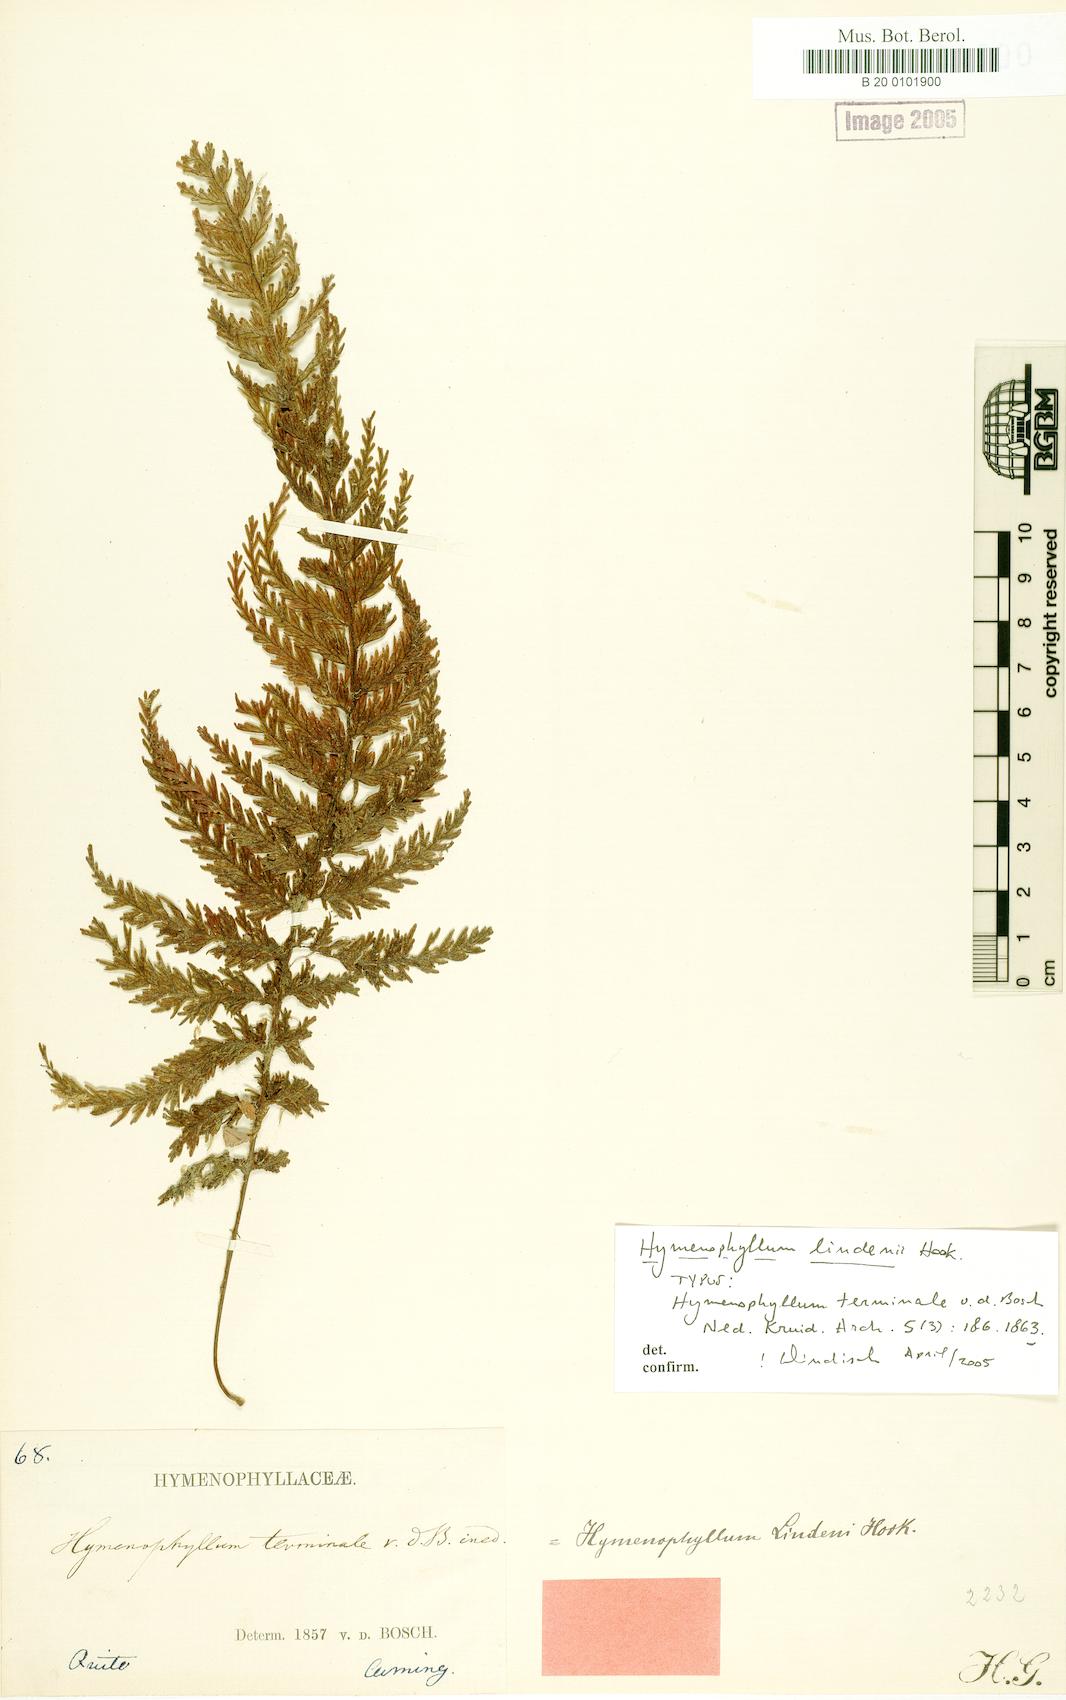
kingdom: Plantae
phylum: Tracheophyta
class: Polypodiopsida
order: Hymenophyllales
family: Hymenophyllaceae
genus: Hymenophyllum
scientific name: Hymenophyllum lindenii
